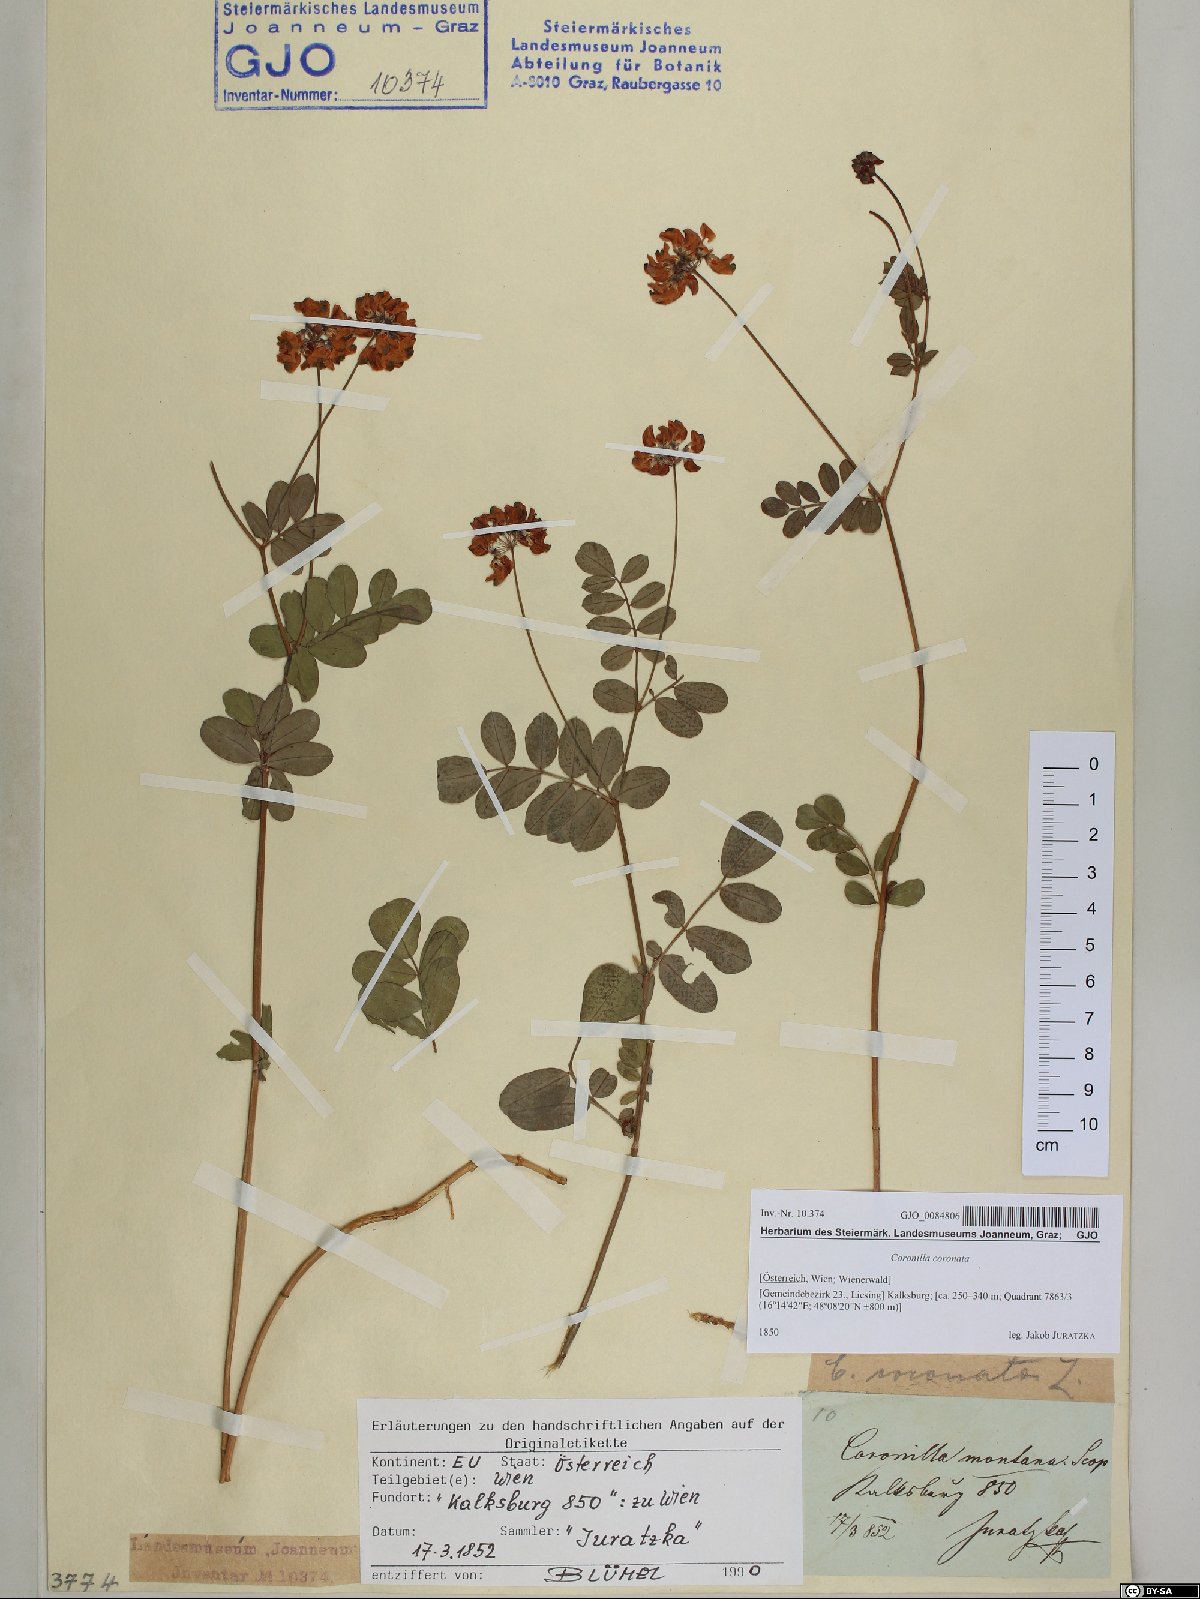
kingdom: Plantae
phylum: Tracheophyta
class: Magnoliopsida
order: Fabales
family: Fabaceae
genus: Coronilla
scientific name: Coronilla coronata
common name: Scorpion-vetch
